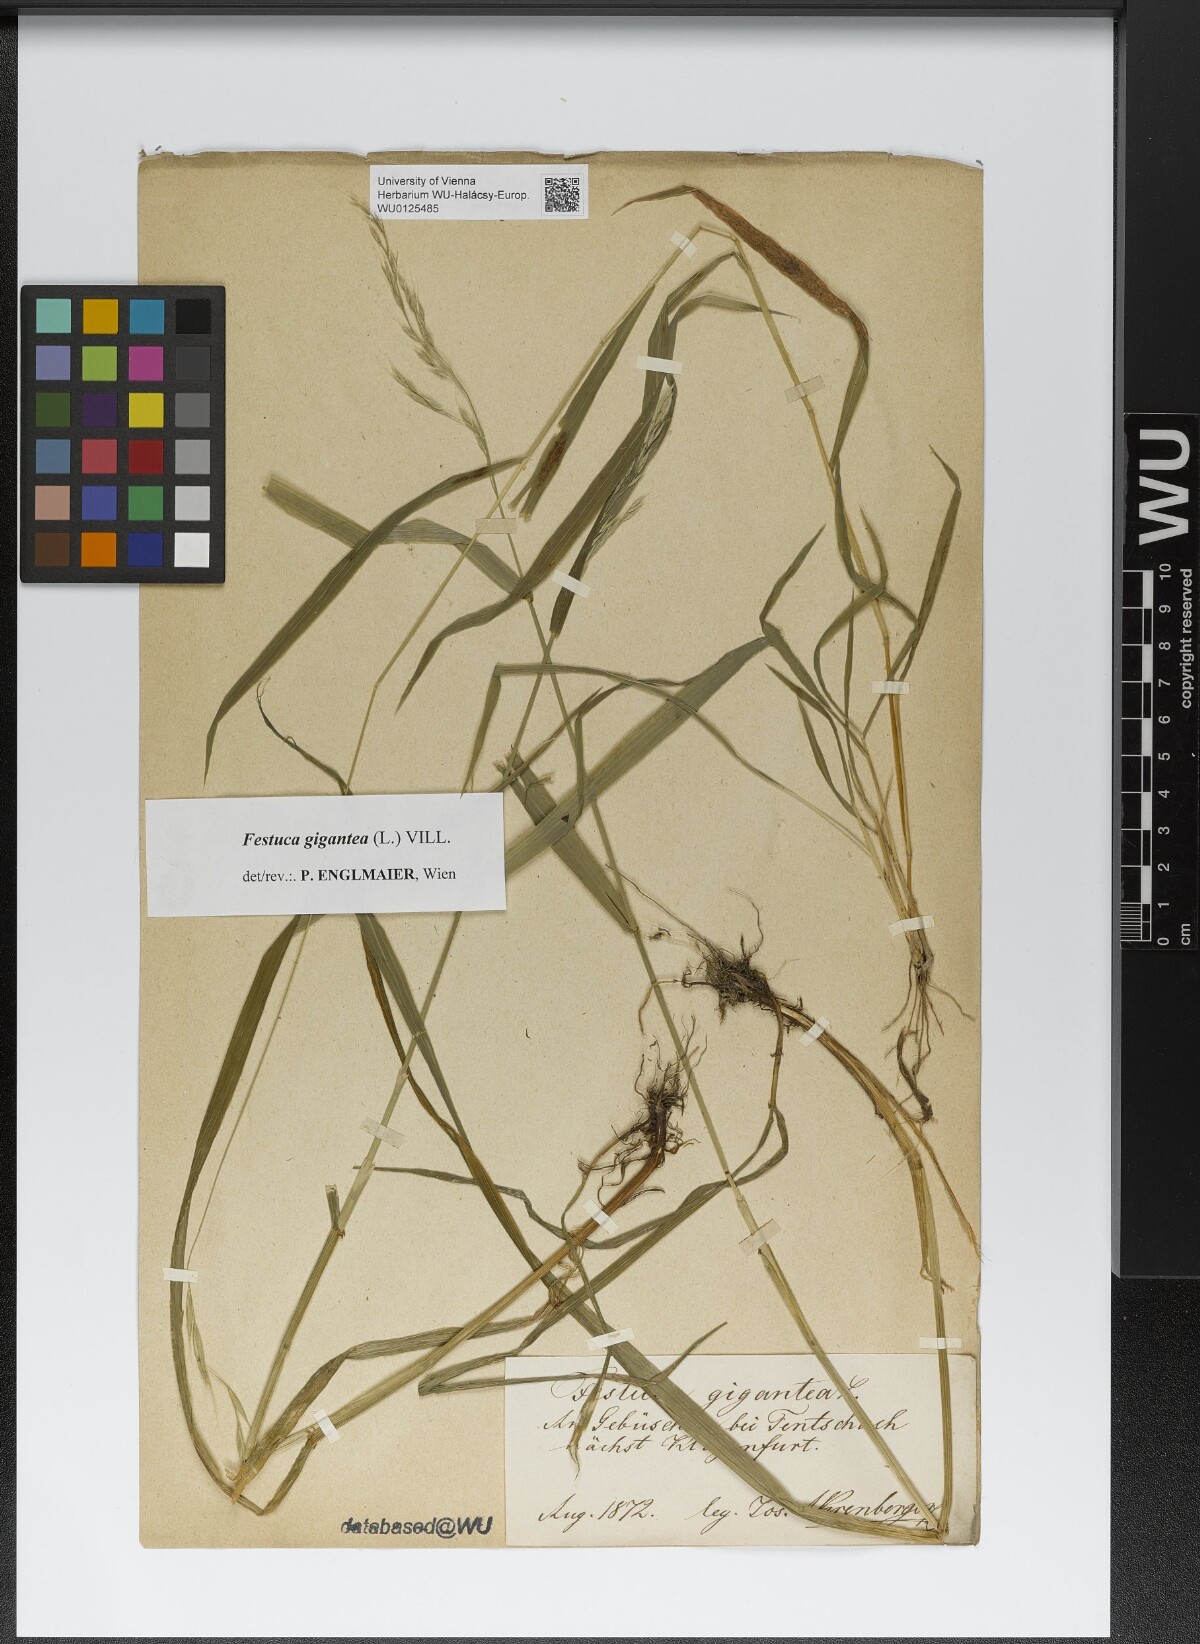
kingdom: Plantae
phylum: Tracheophyta
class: Liliopsida
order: Poales
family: Poaceae
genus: Lolium
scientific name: Lolium giganteum
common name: Giant fescue
